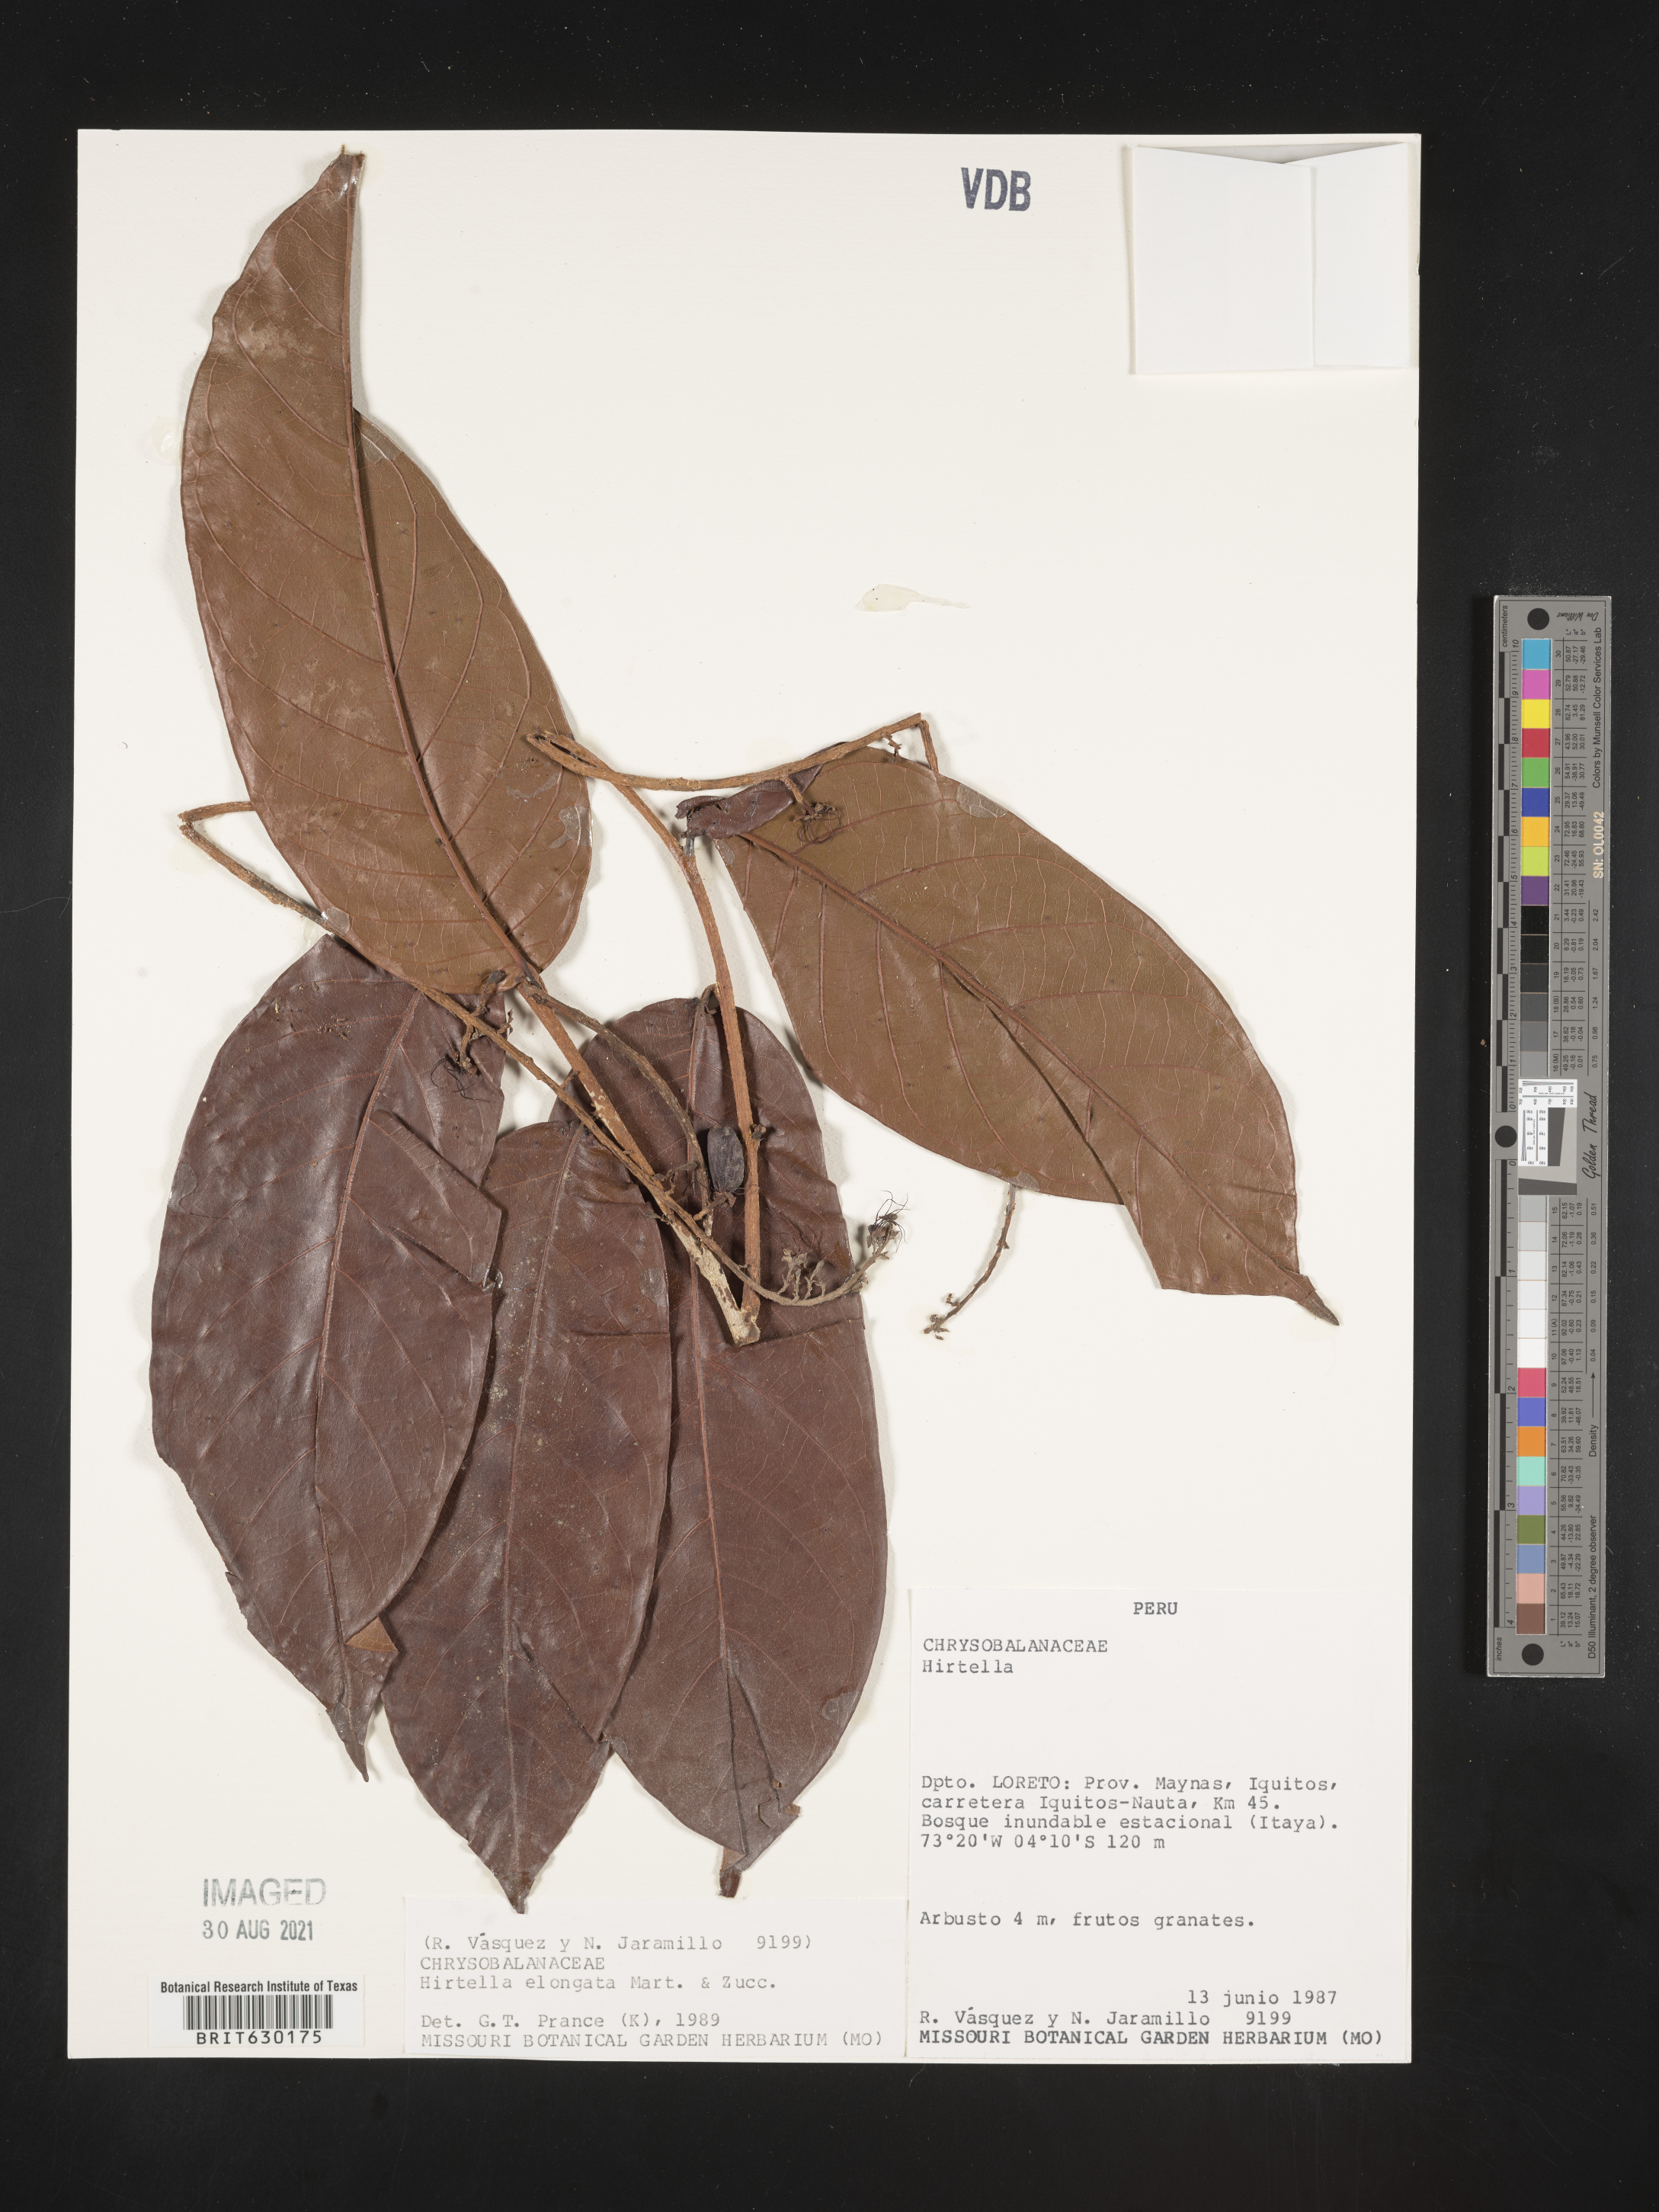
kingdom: Plantae
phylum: Tracheophyta
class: Magnoliopsida
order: Malpighiales
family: Chrysobalanaceae
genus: Hirtella
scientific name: Hirtella elongata
